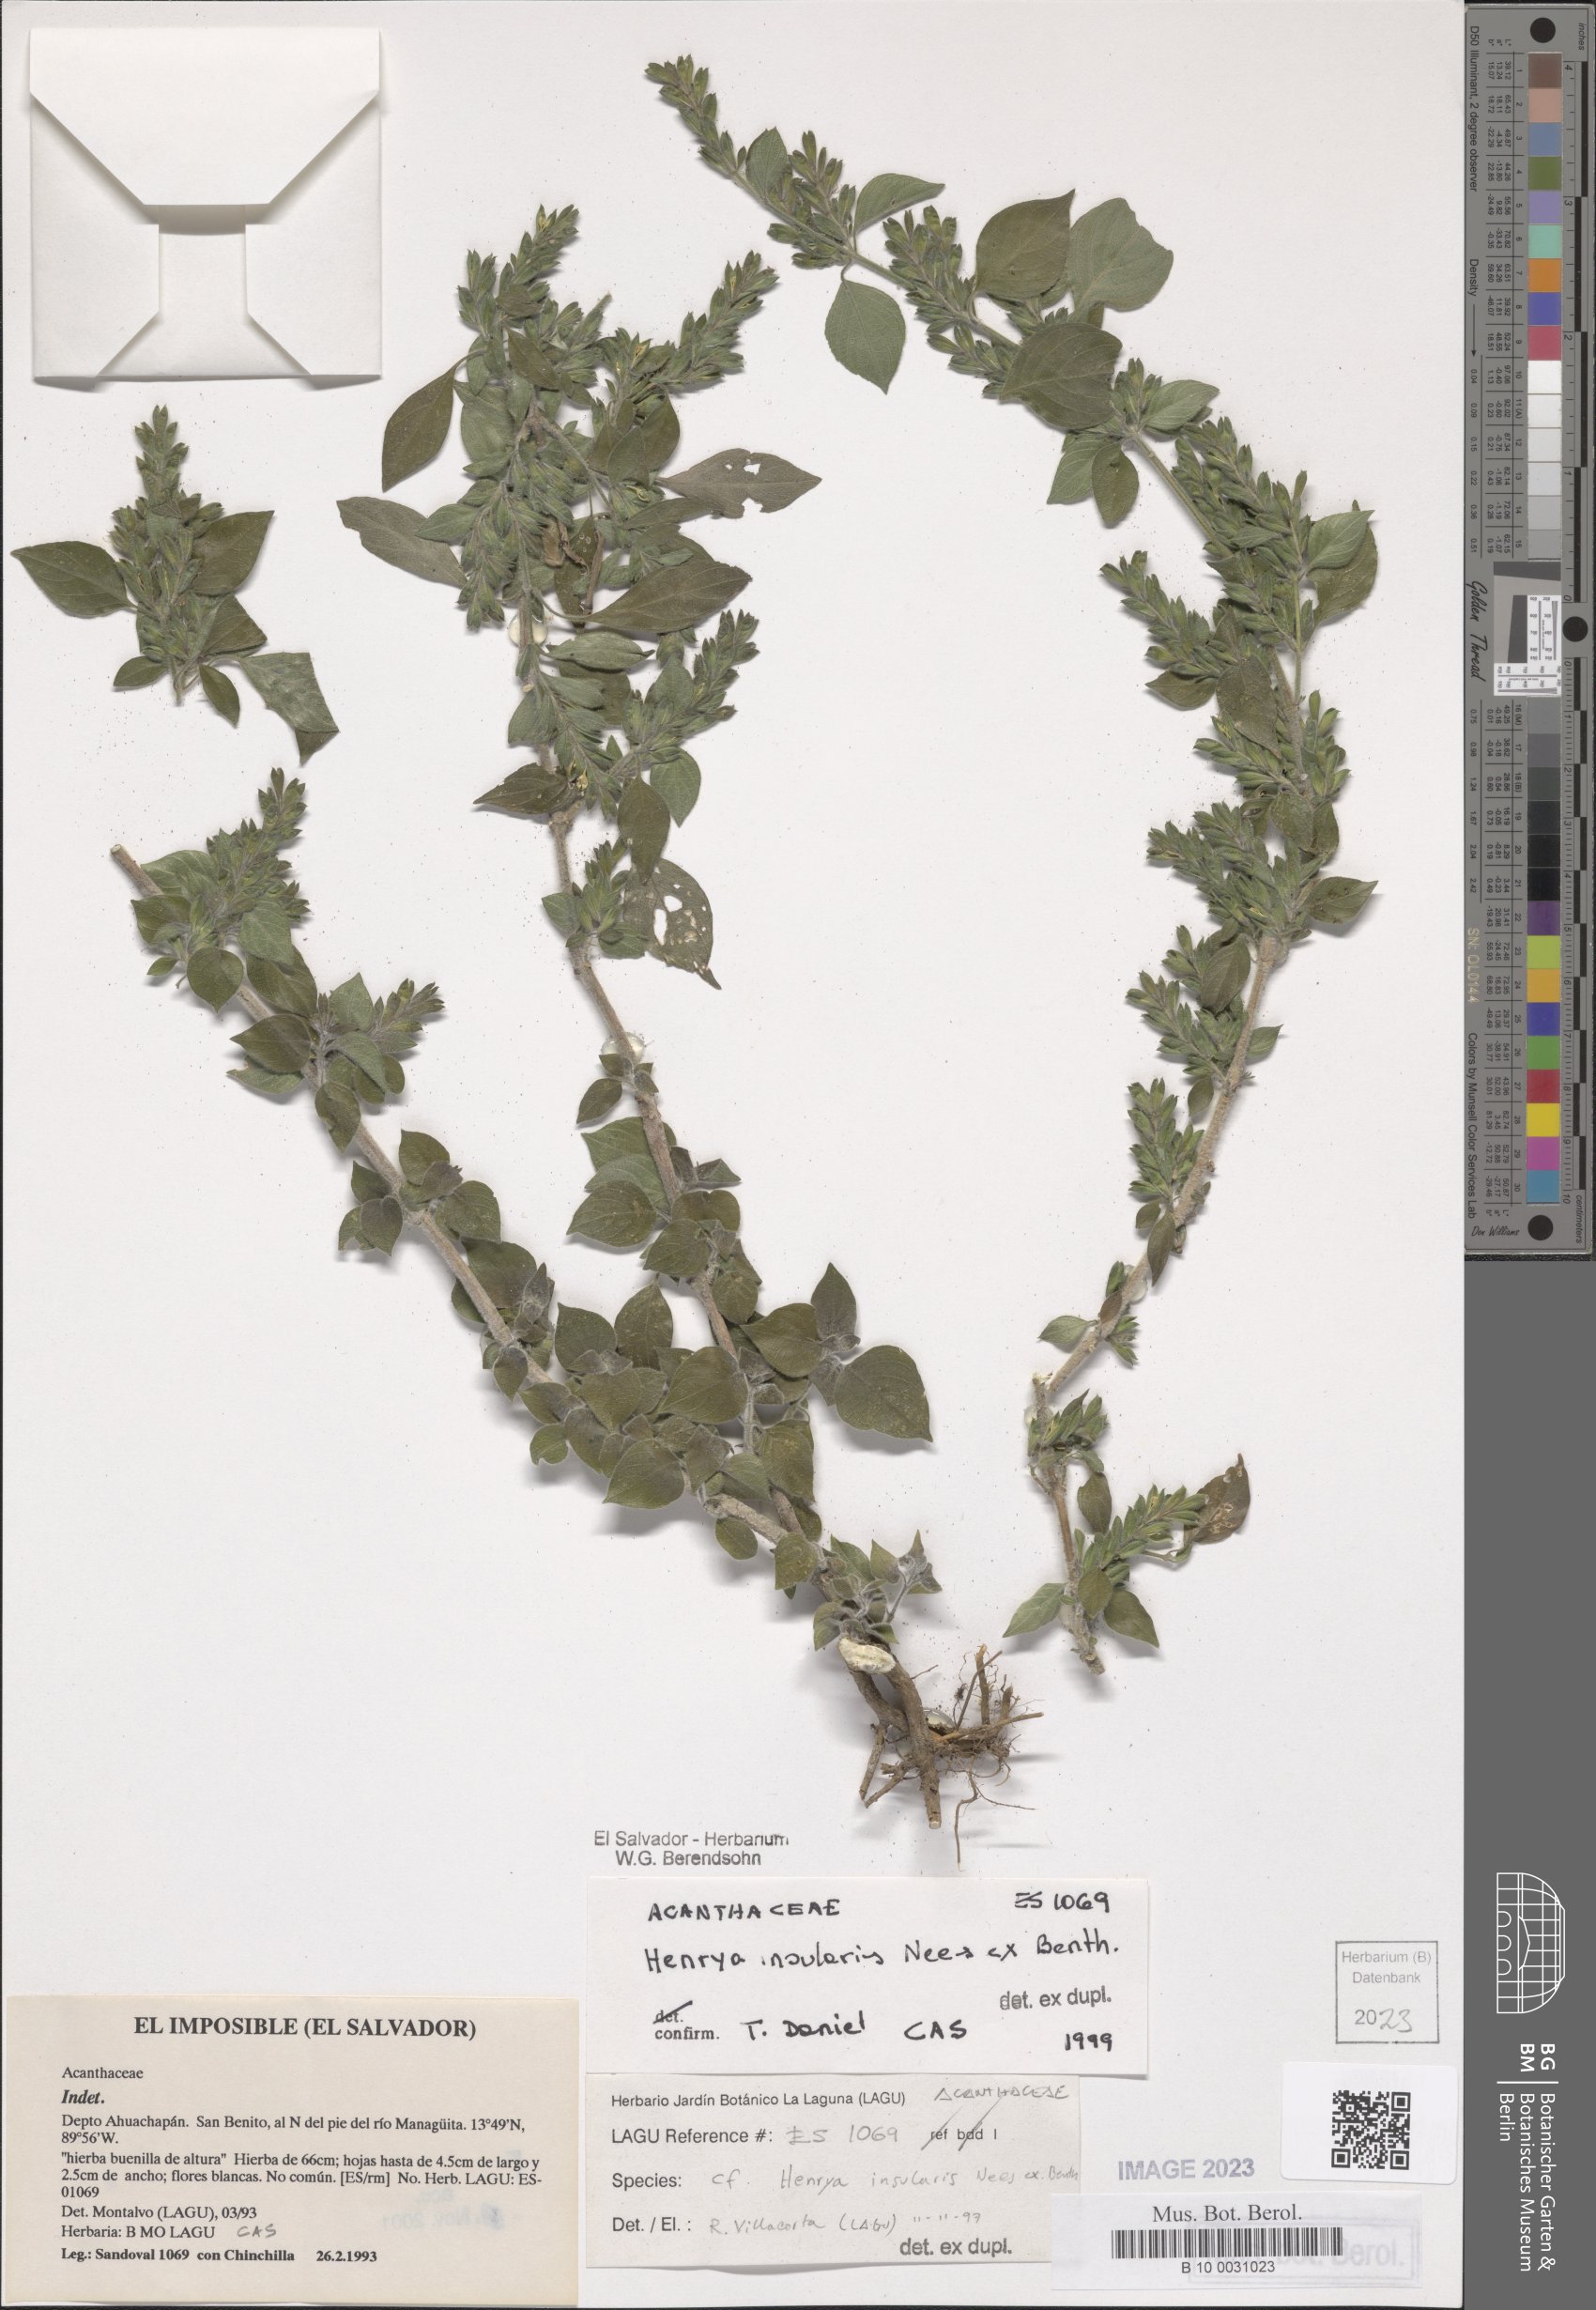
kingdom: Plantae
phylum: Tracheophyta
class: Magnoliopsida
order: Lamiales
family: Acanthaceae
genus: Henrya
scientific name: Henrya insularis
